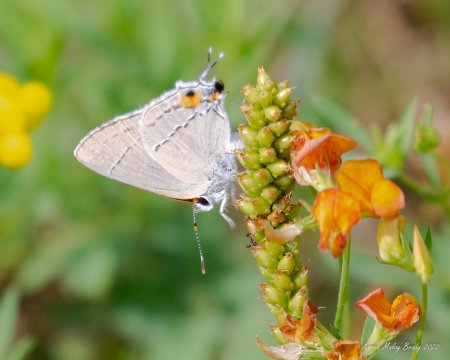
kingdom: Animalia
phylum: Arthropoda
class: Insecta
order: Lepidoptera
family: Lycaenidae
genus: Strymon
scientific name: Strymon melinus
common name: Gray Hairstreak
